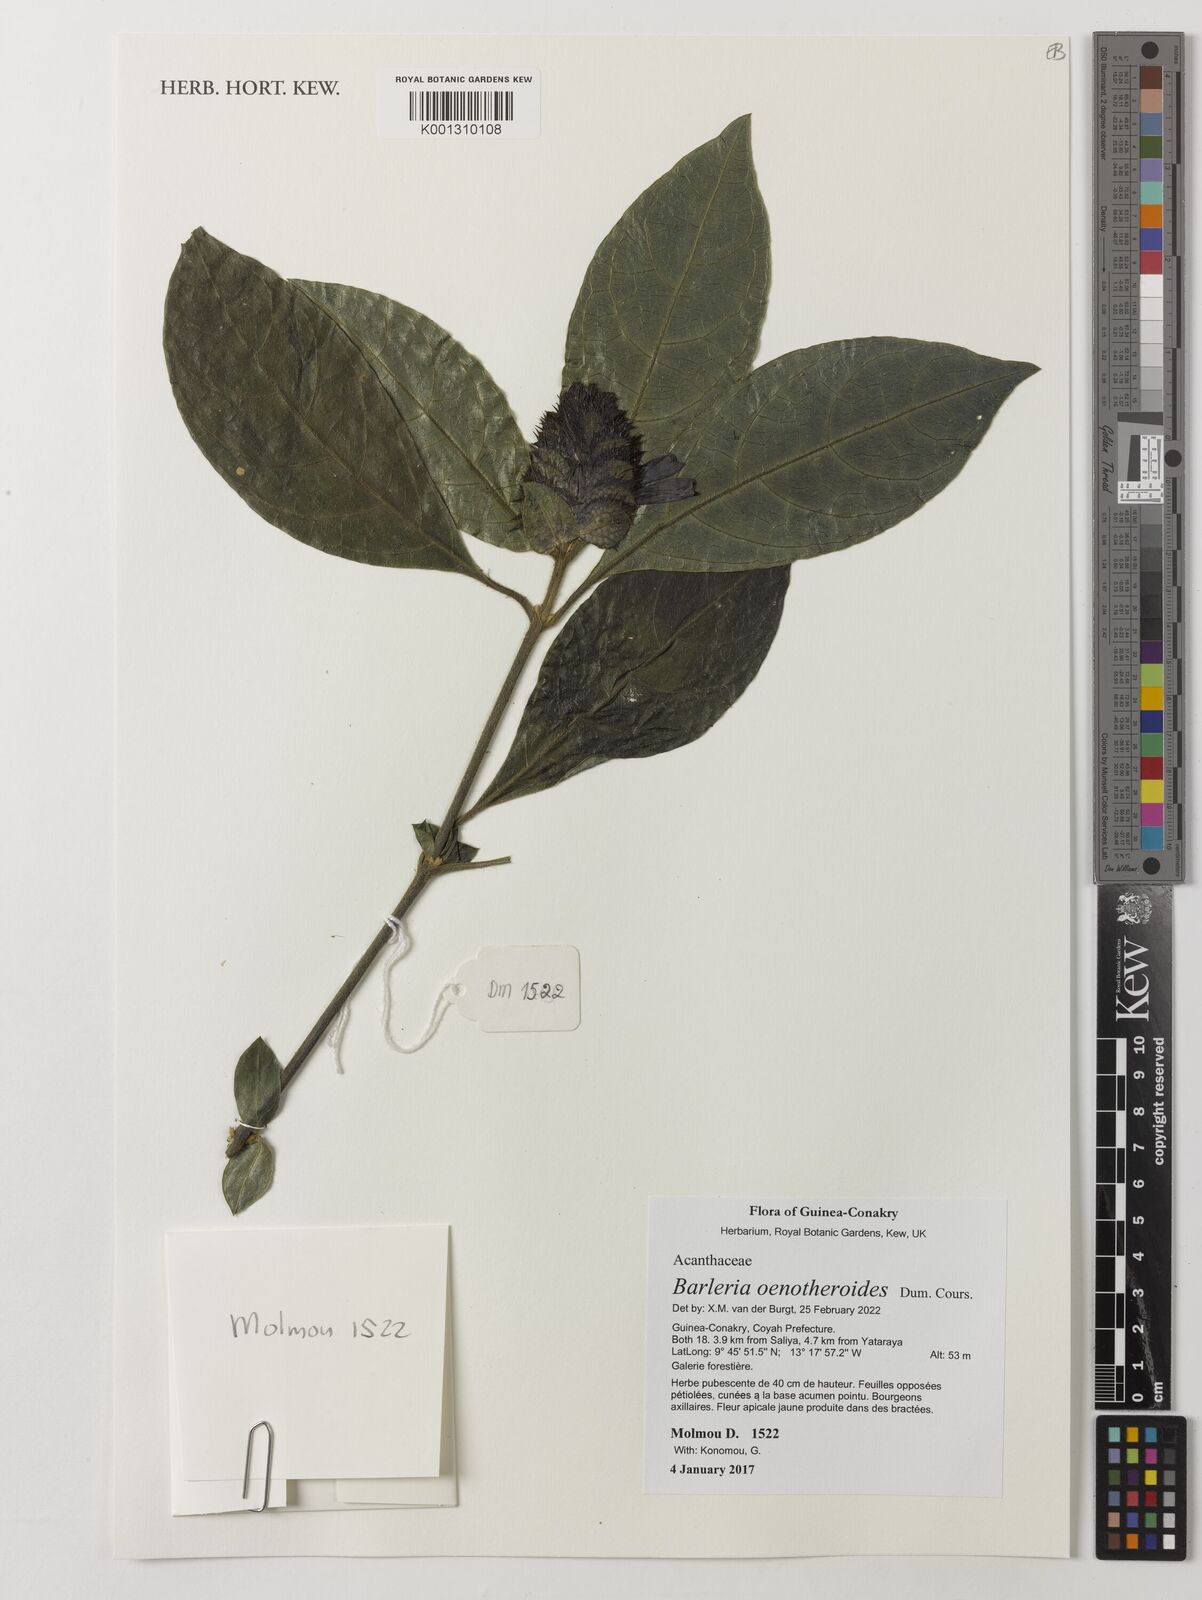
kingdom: Plantae
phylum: Tracheophyta
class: Magnoliopsida
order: Lamiales
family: Acanthaceae
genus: Barleria
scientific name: Barleria oenotheroides
